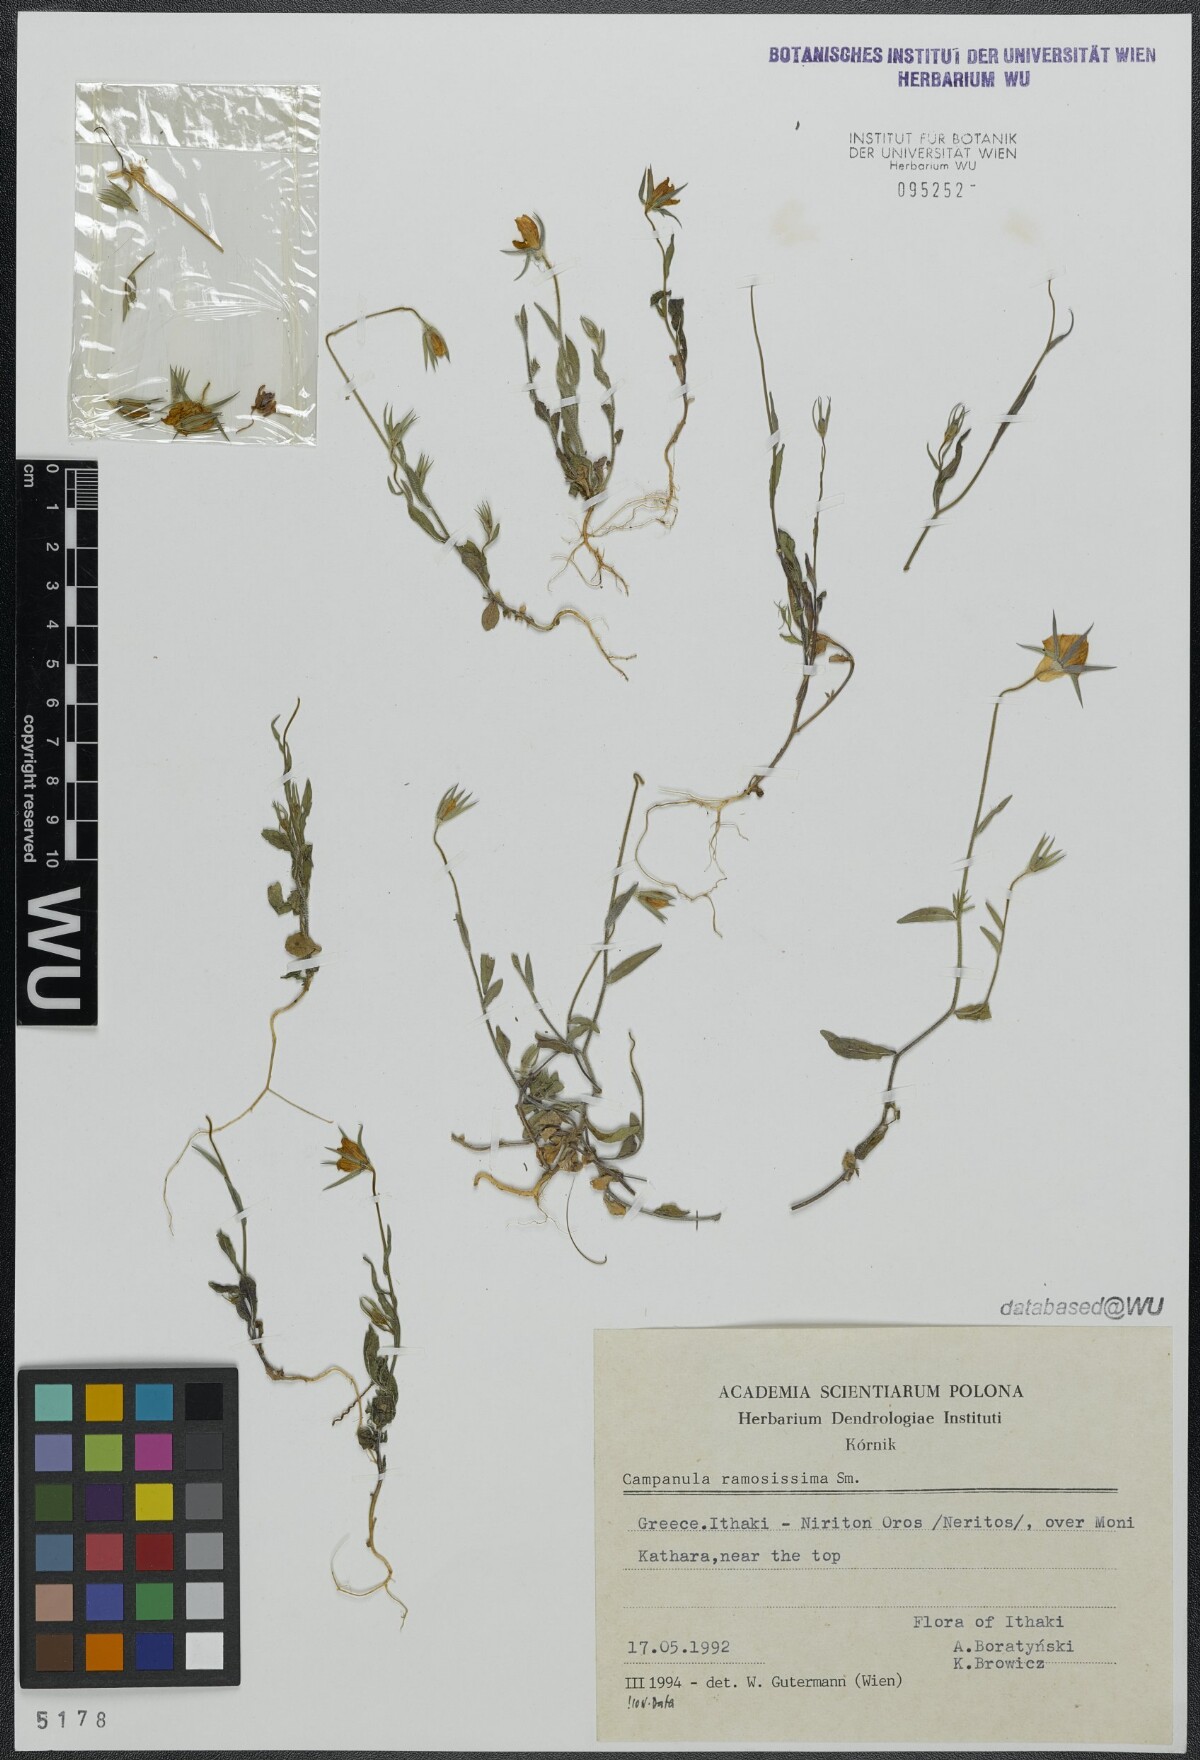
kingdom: Plantae
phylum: Tracheophyta
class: Magnoliopsida
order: Asterales
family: Campanulaceae
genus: Campanula
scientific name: Campanula ramosissima
